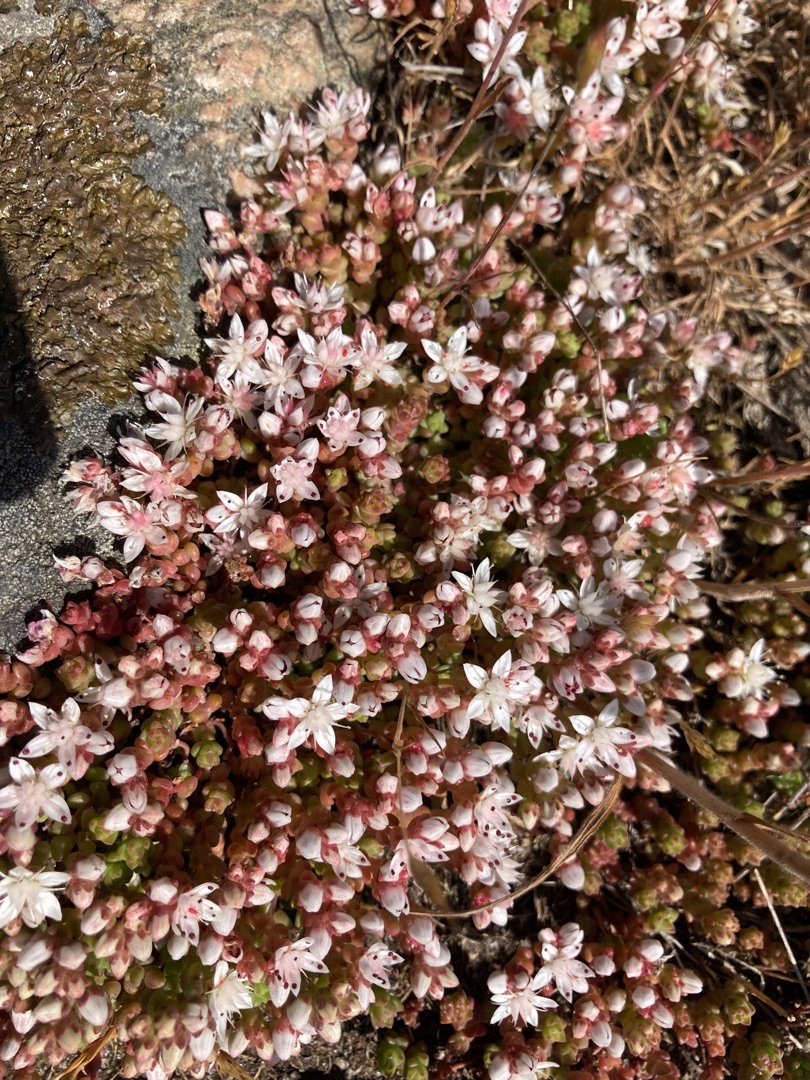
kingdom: Plantae
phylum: Tracheophyta
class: Magnoliopsida
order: Saxifragales
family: Crassulaceae
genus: Sedum
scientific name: Sedum anglicum
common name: Engelsk stenurt
